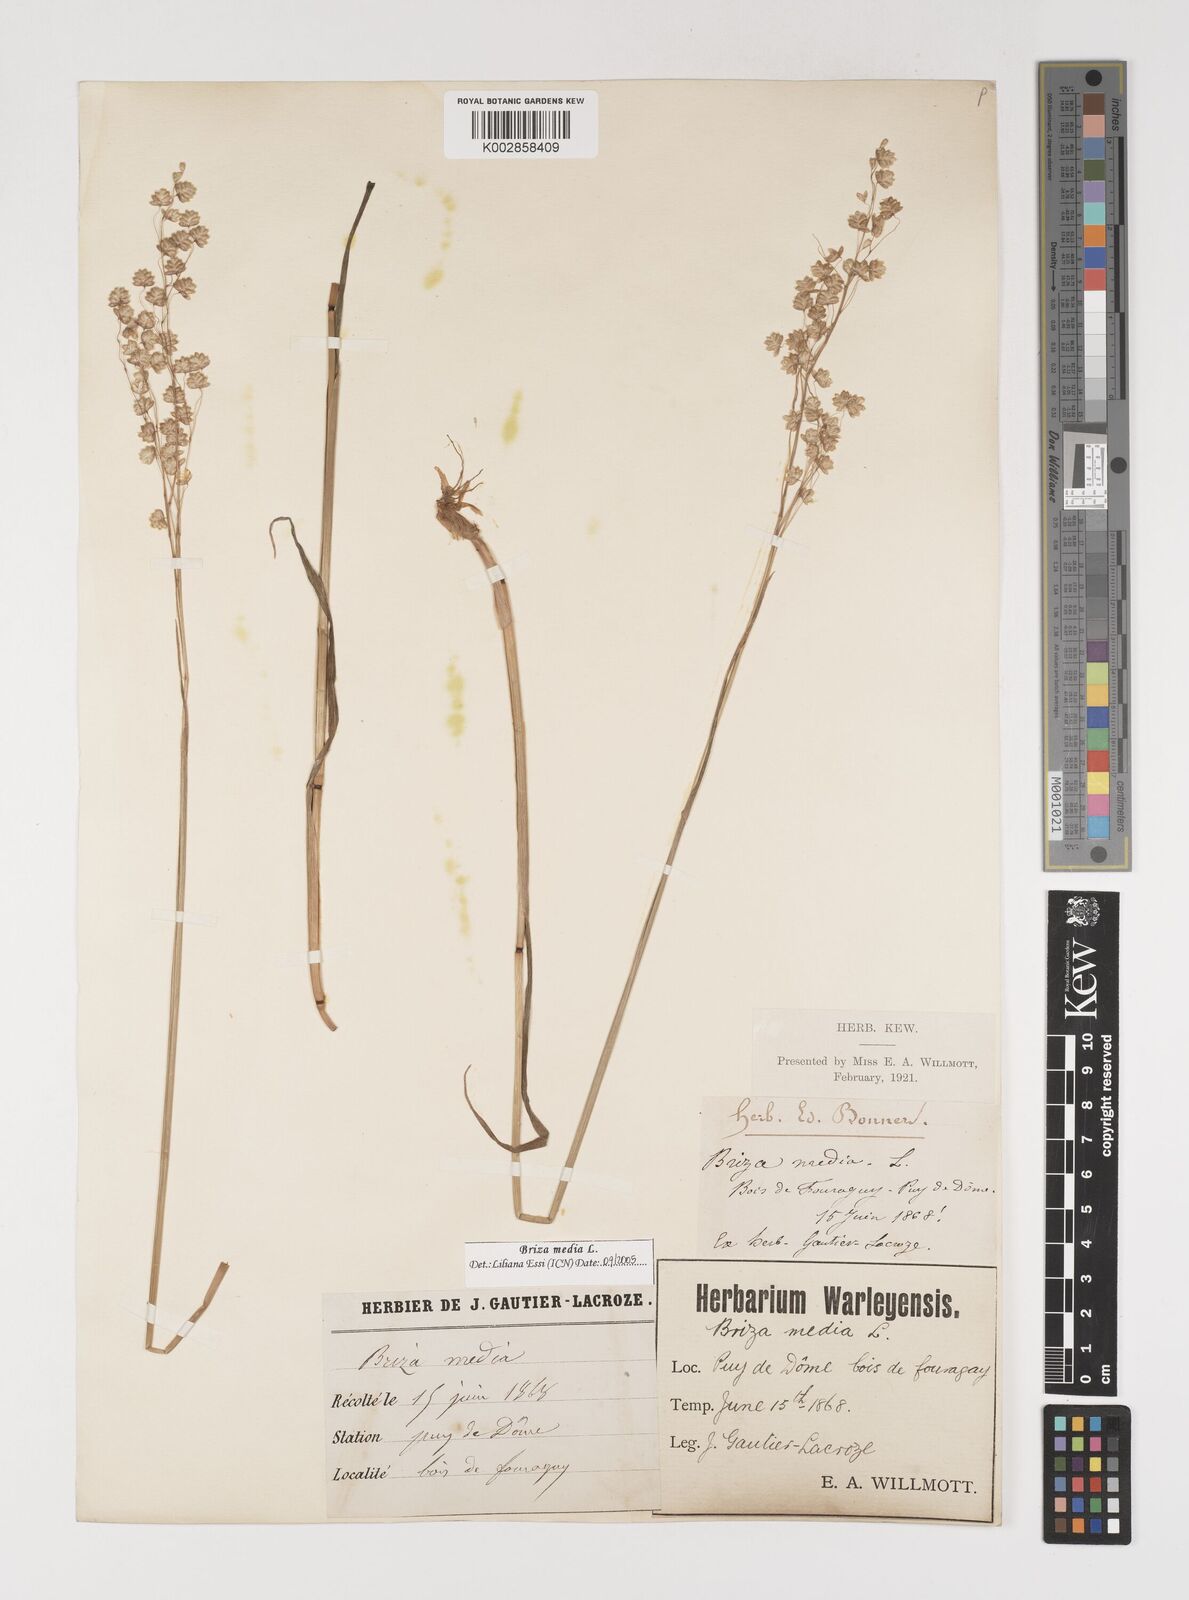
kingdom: Plantae
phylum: Tracheophyta
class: Liliopsida
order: Poales
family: Poaceae
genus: Briza
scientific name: Briza media
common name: Quaking grass
